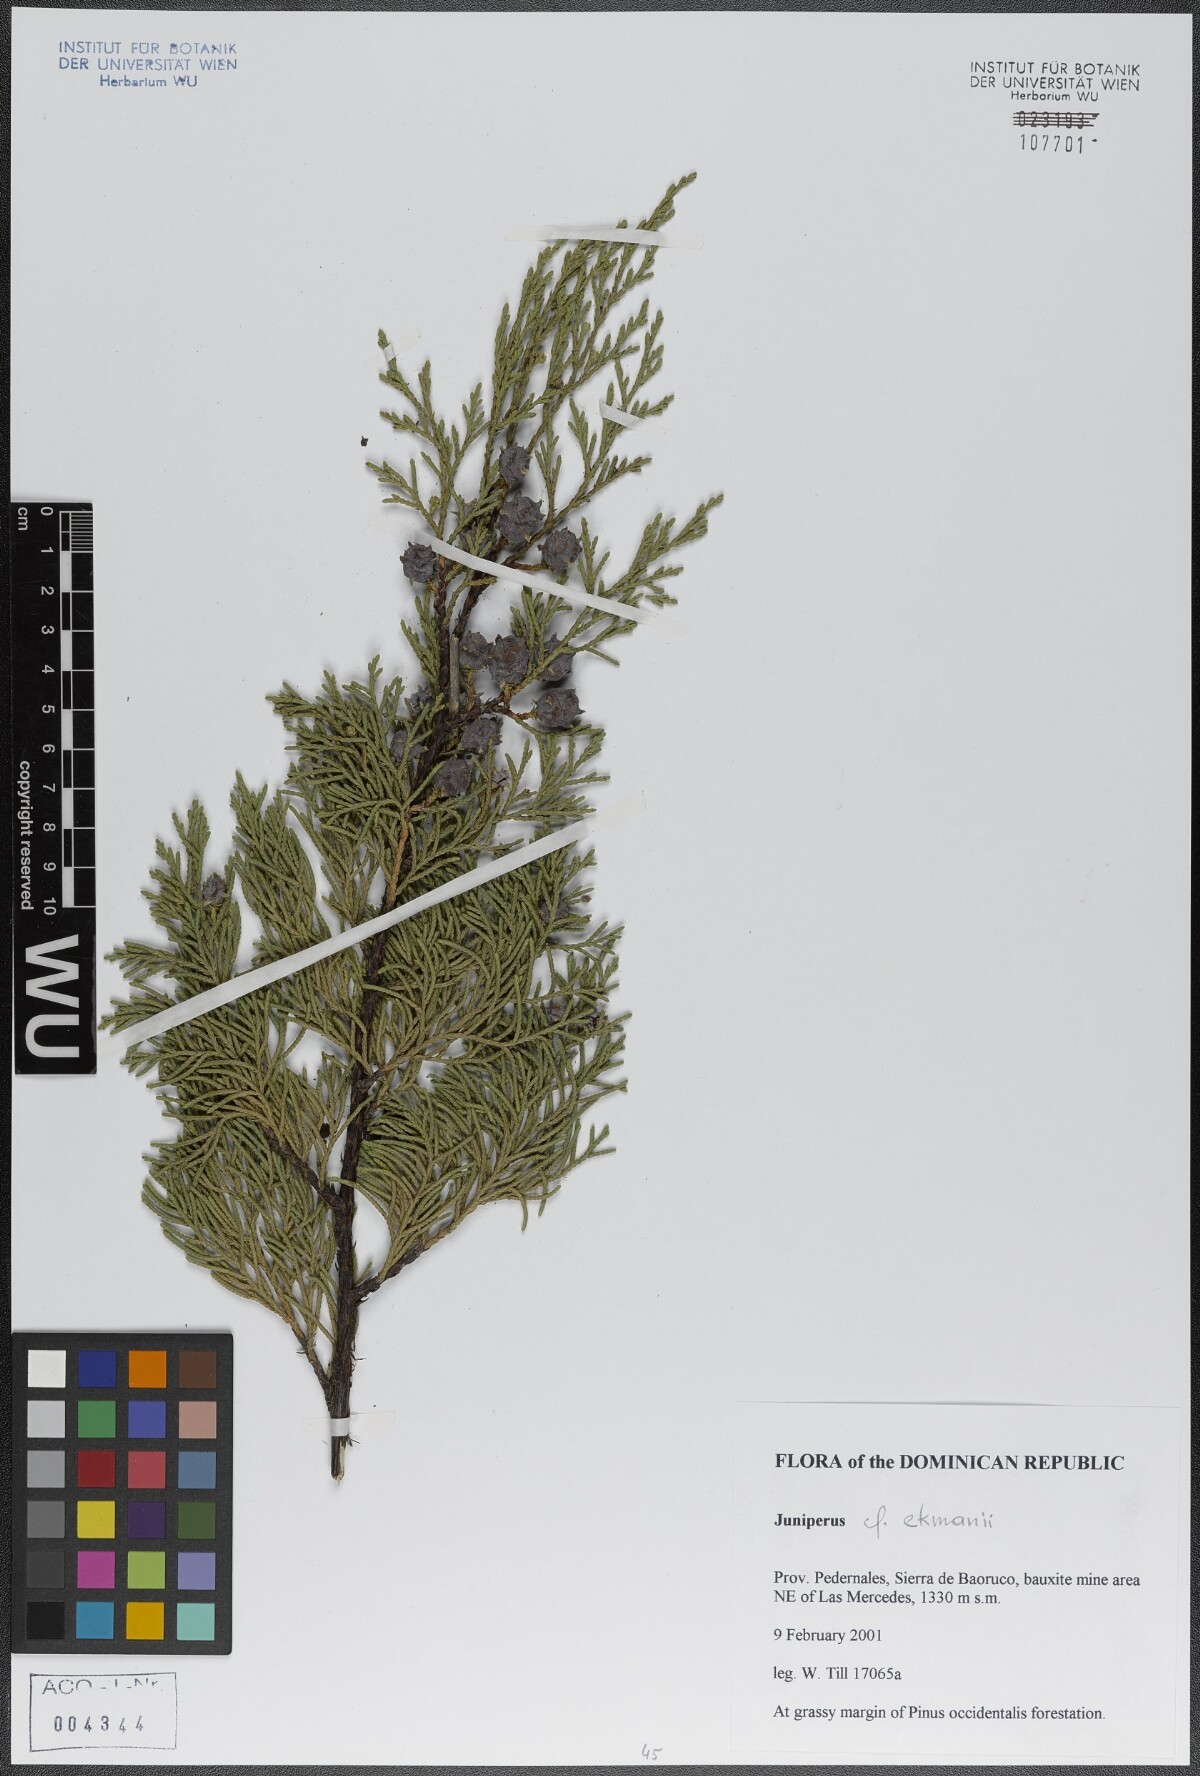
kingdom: Plantae
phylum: Tracheophyta
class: Pinopsida
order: Pinales
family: Cupressaceae
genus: Juniperus
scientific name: Juniperus gracilior
